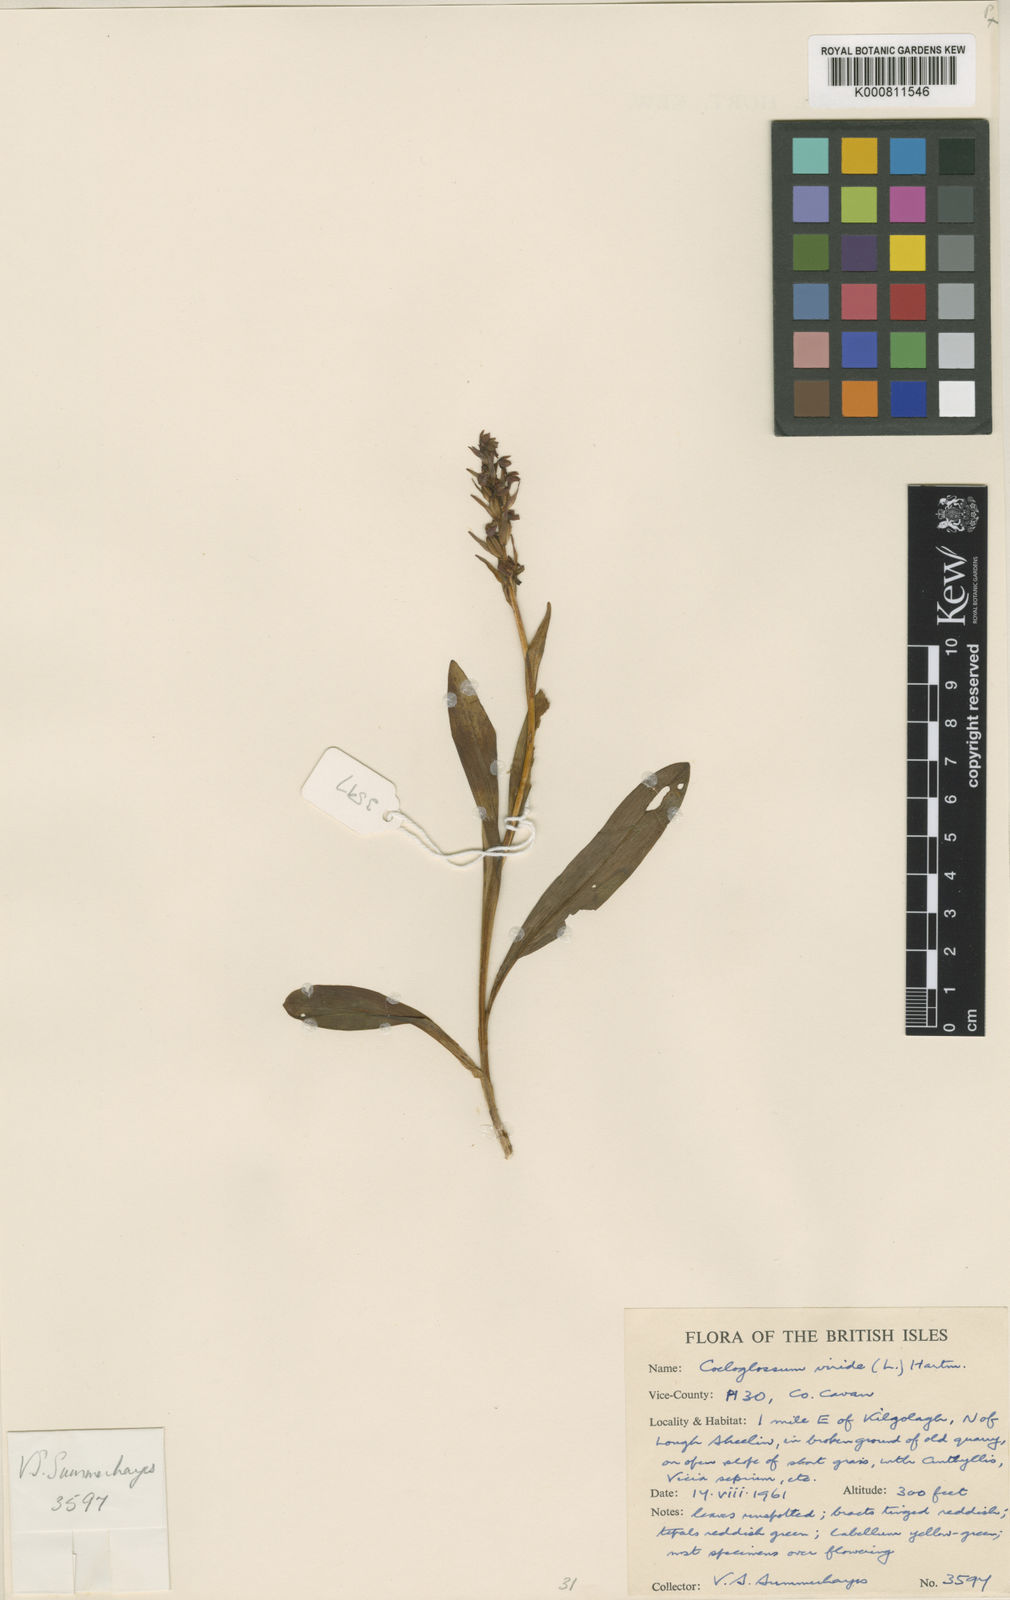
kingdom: Plantae
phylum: Tracheophyta
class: Liliopsida
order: Asparagales
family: Orchidaceae
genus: Dactylorhiza
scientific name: Dactylorhiza viridis
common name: Longbract frog orchid
